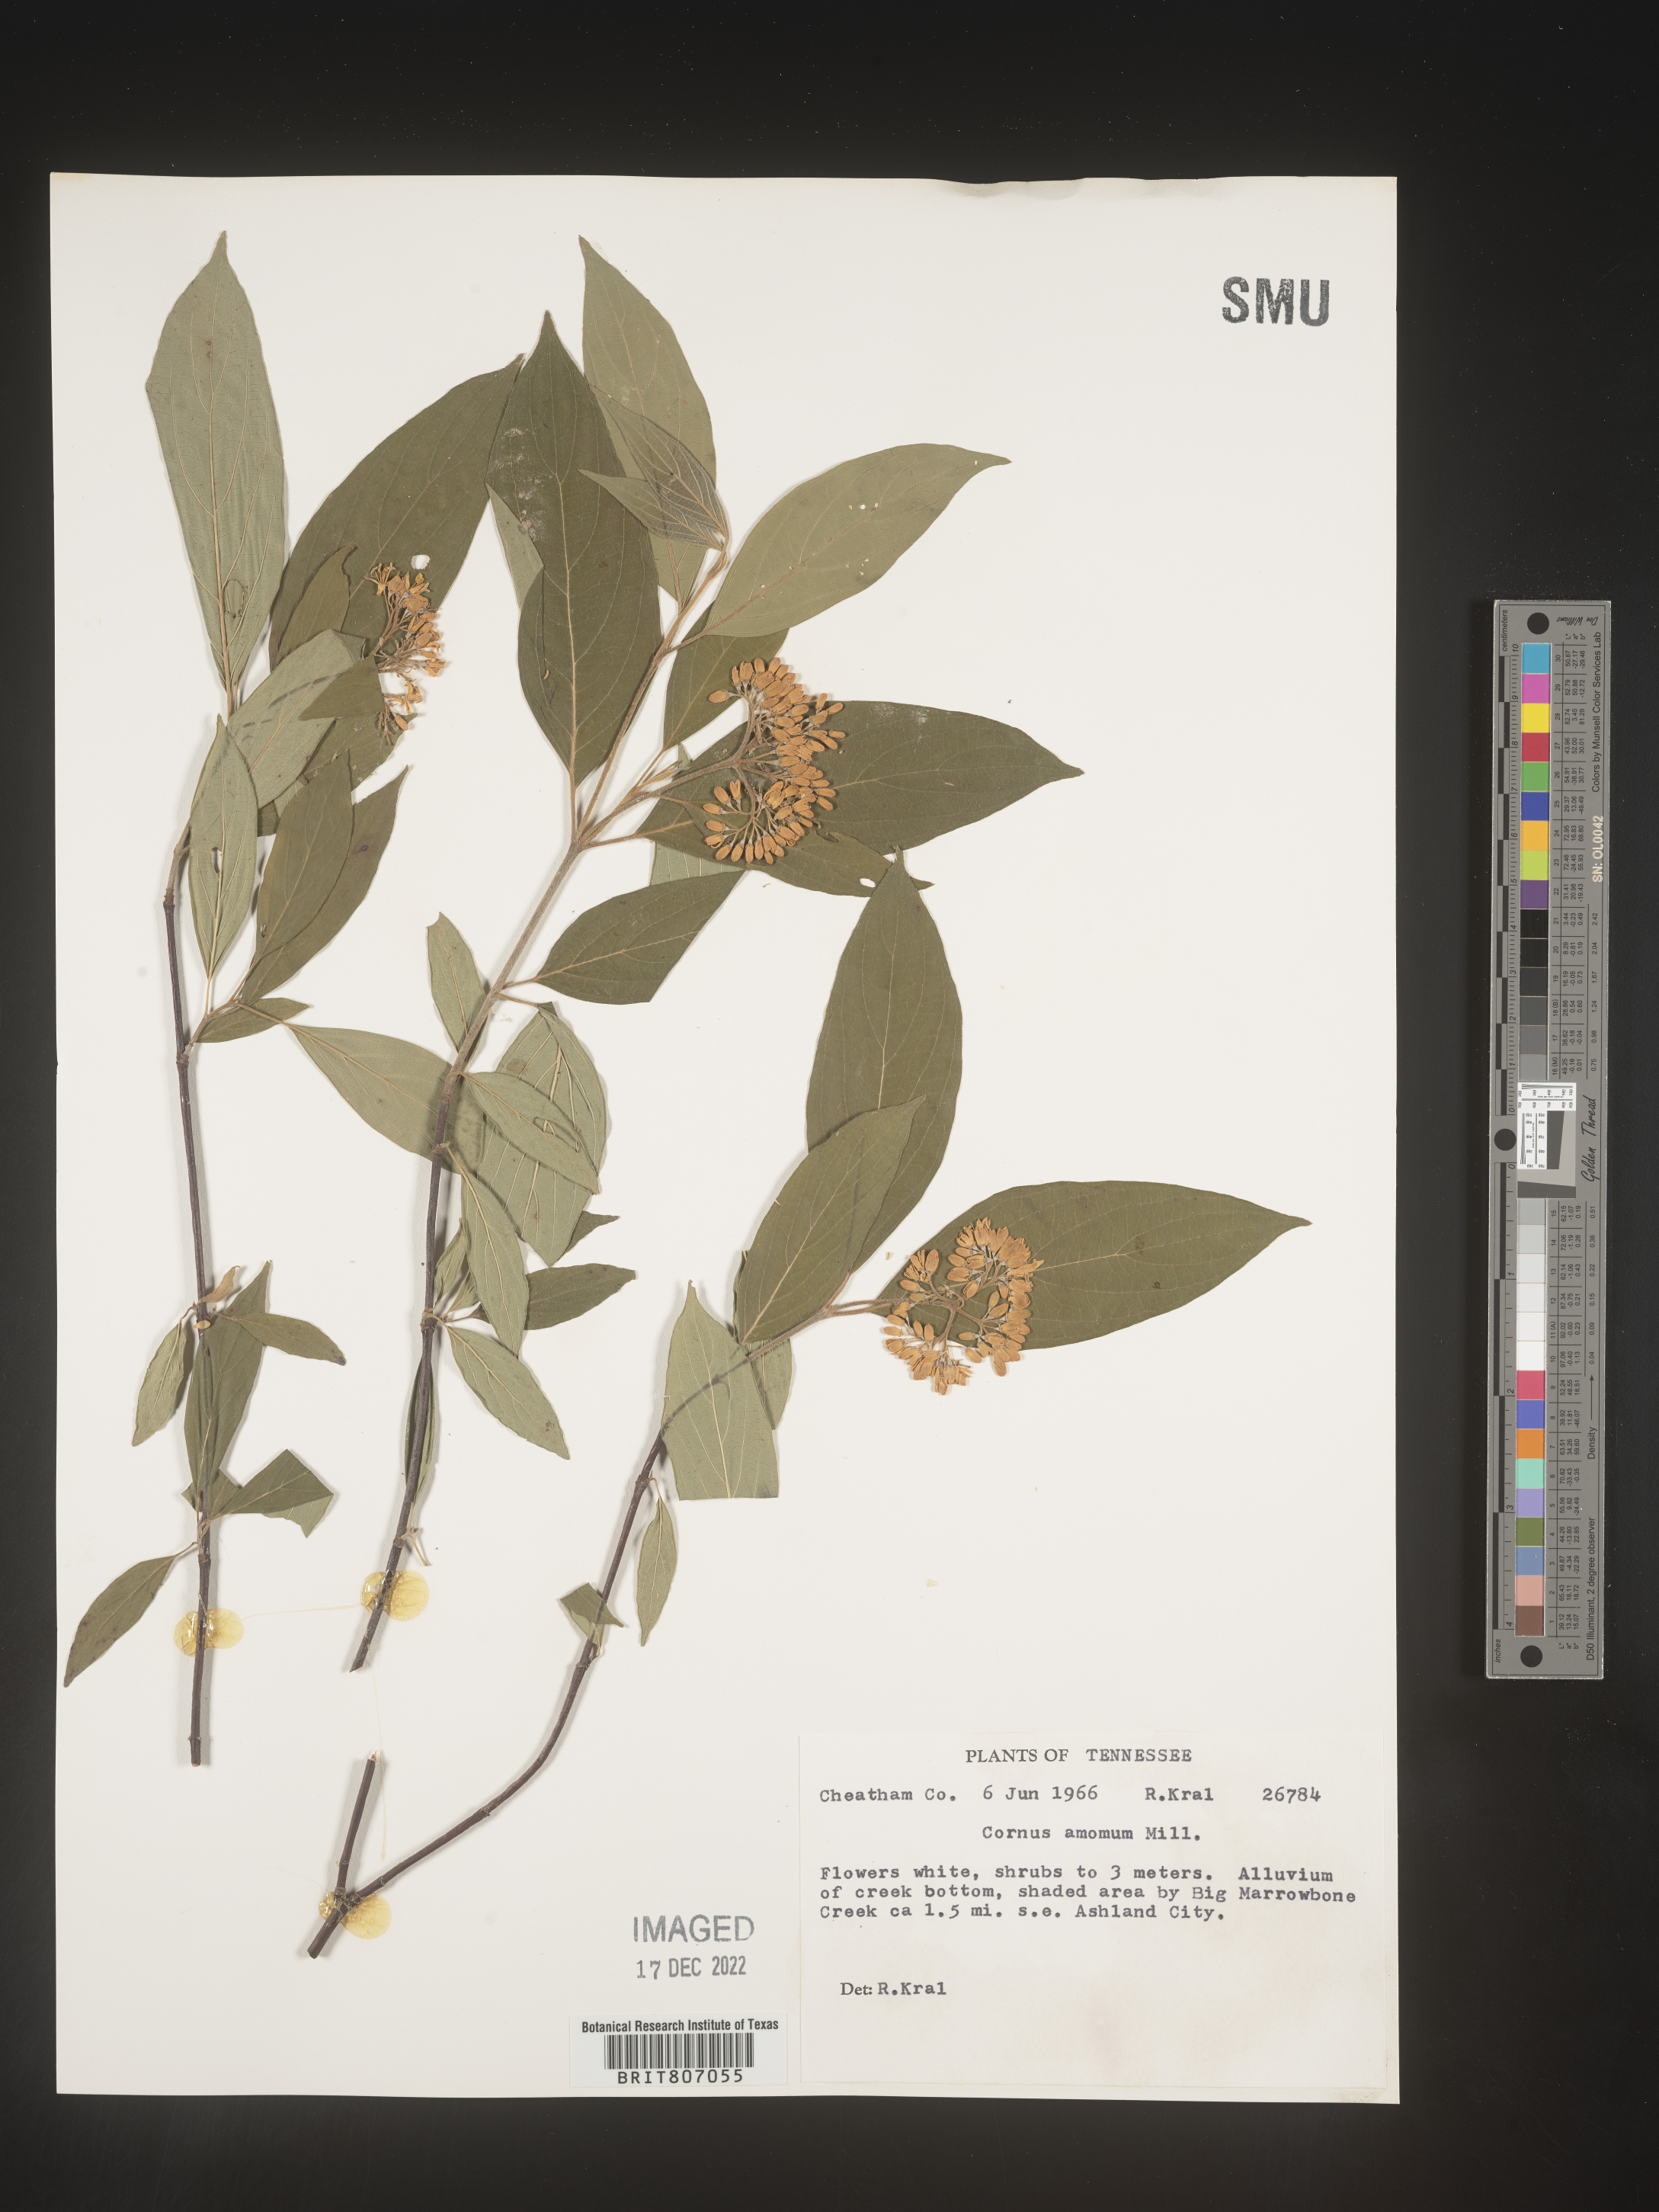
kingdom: Plantae
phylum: Tracheophyta
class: Magnoliopsida
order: Cornales
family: Cornaceae
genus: Cornus
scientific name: Cornus amomum
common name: Silky dogwood
